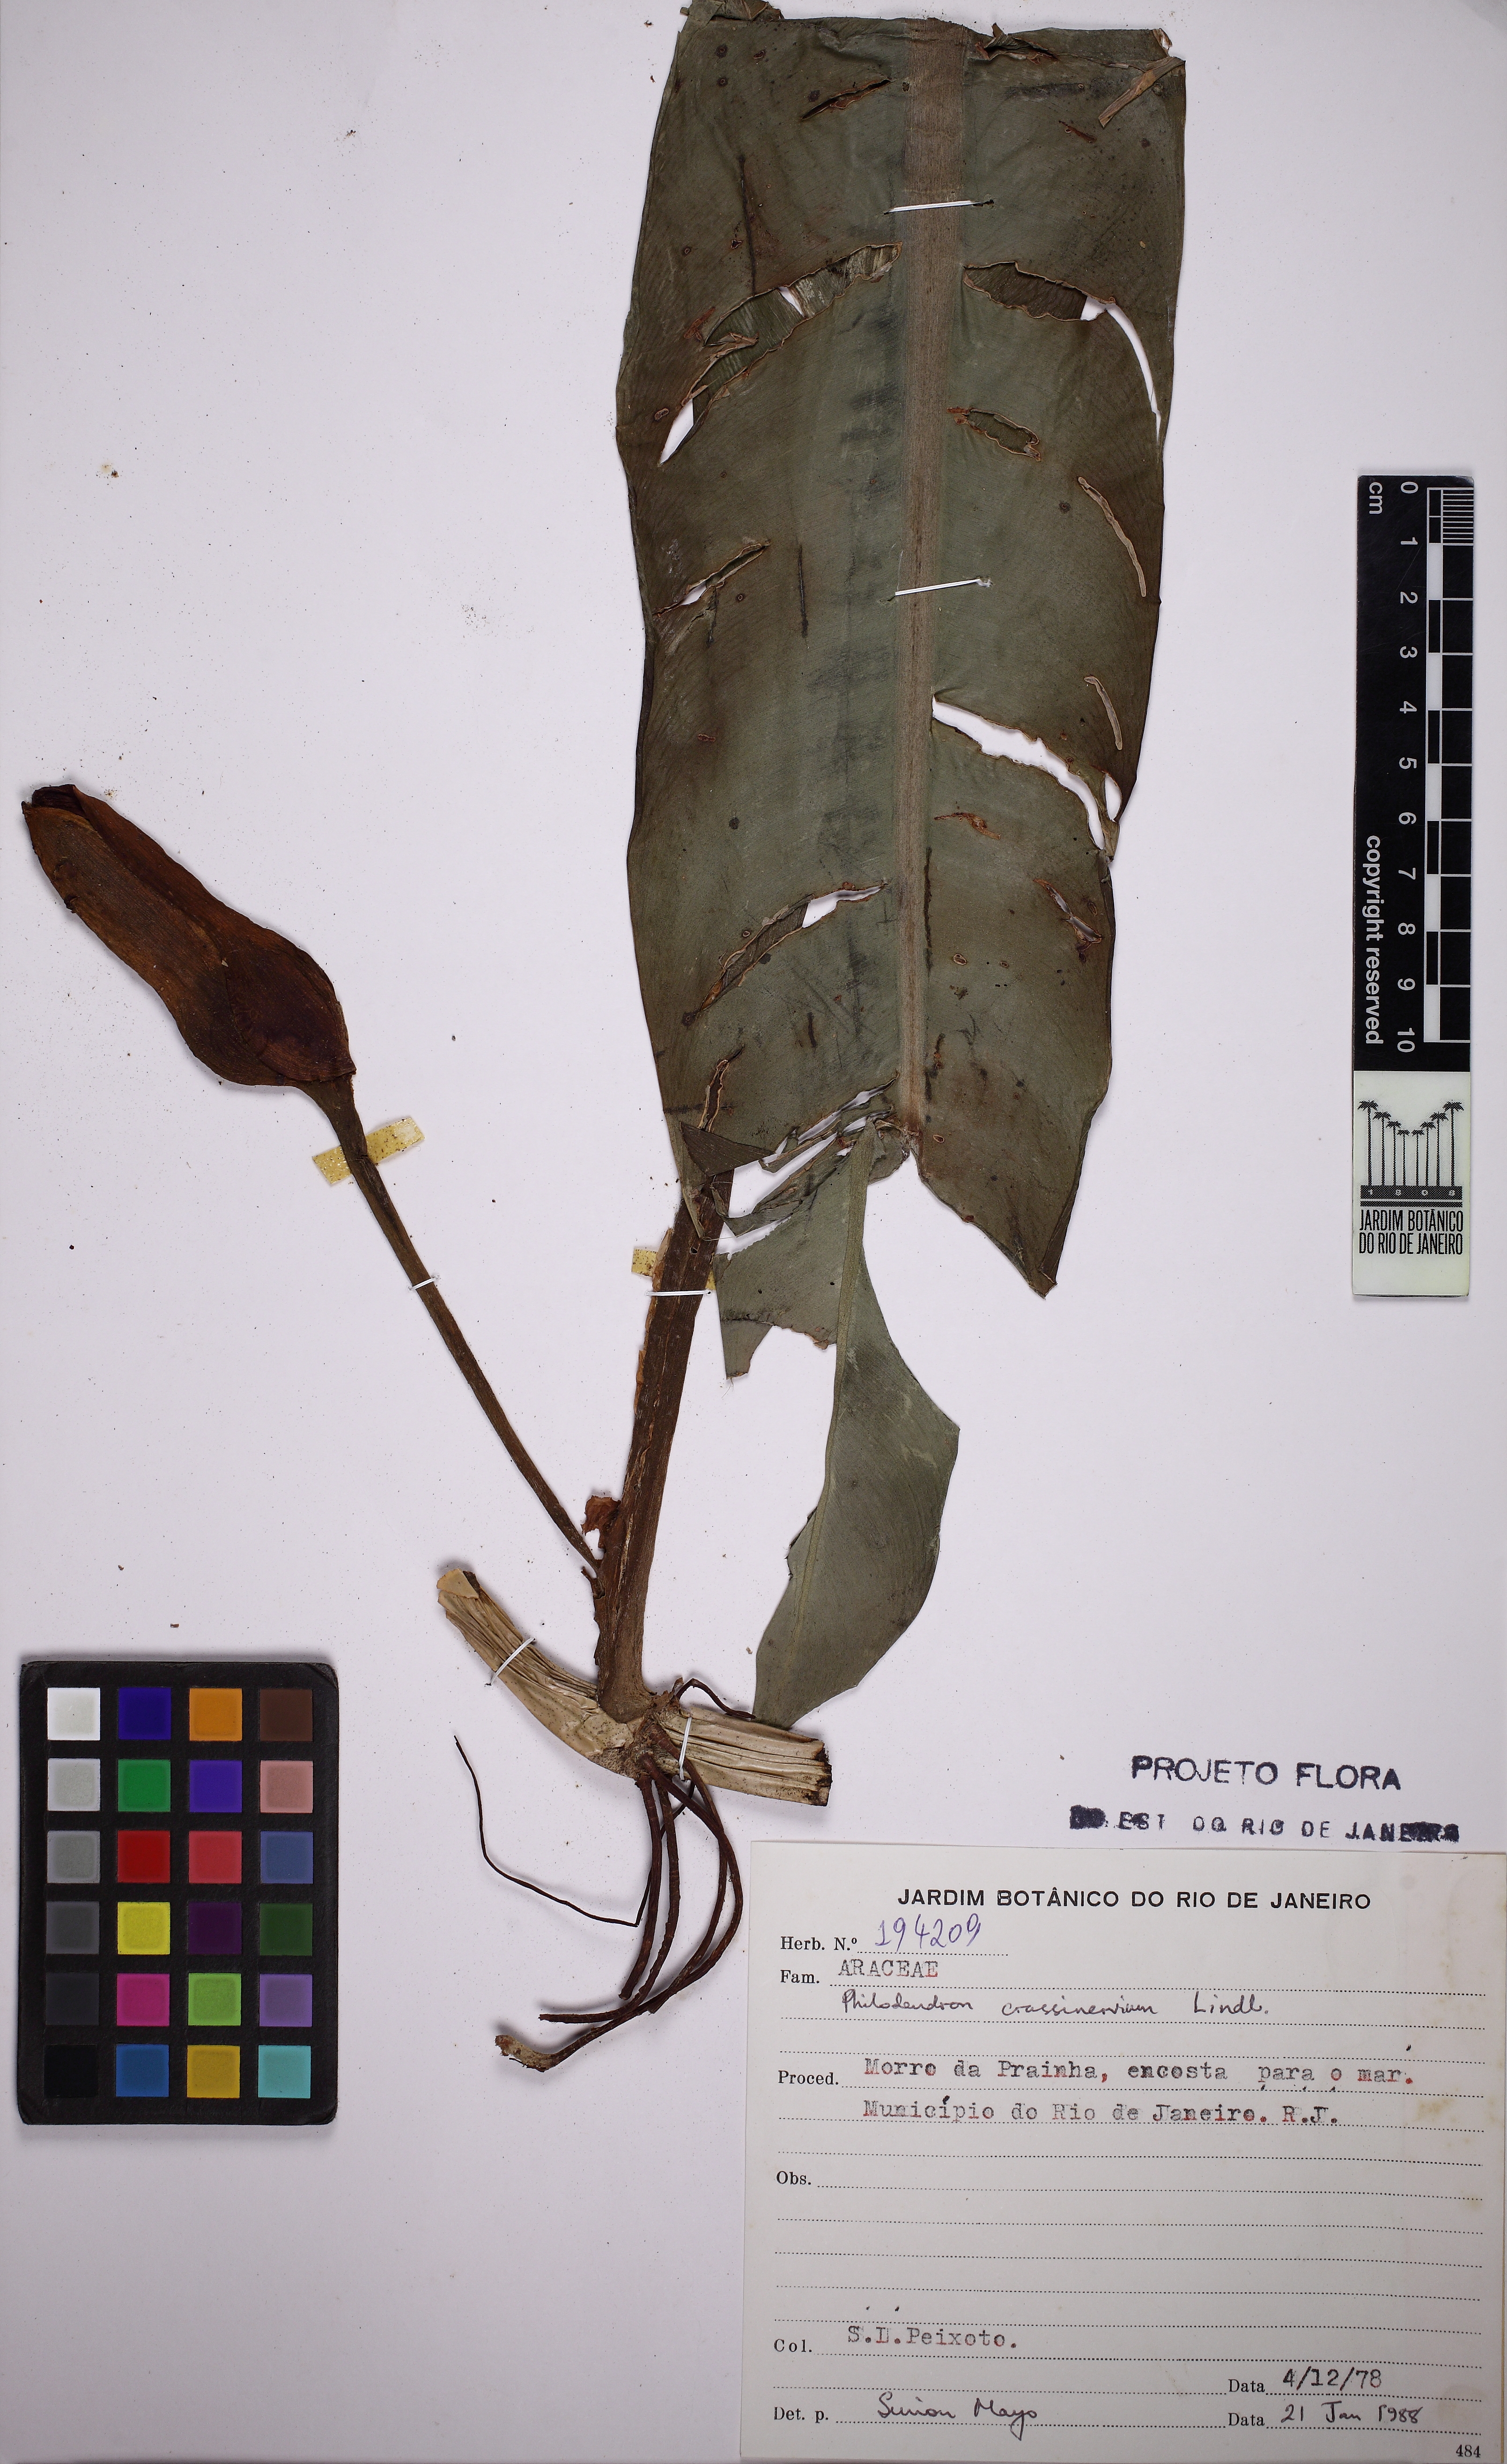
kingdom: Plantae
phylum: Tracheophyta
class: Liliopsida
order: Alismatales
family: Araceae
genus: Philodendron
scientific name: Philodendron crassinervium
